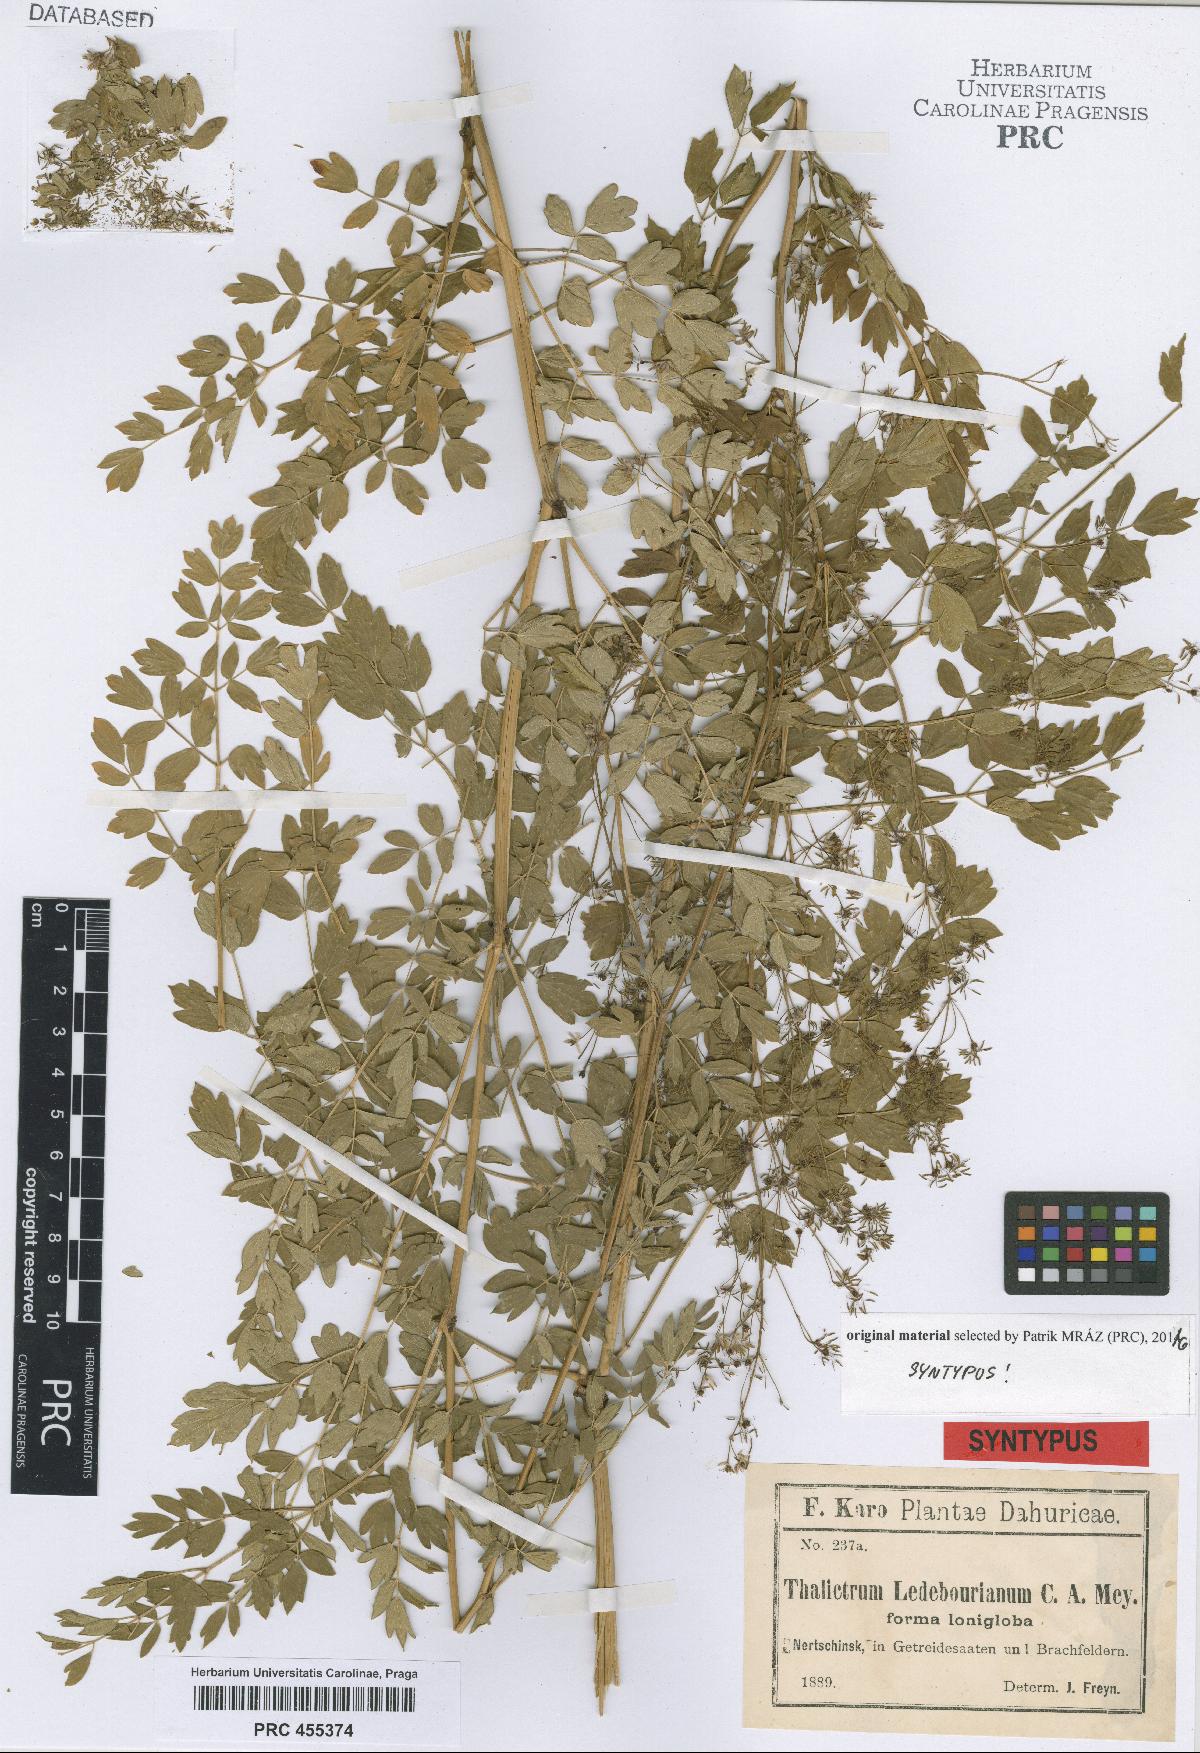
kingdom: Plantae
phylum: Tracheophyta
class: Magnoliopsida
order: Ranunculales
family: Ranunculaceae
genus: Thalictrum
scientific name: Thalictrum squarrosum
